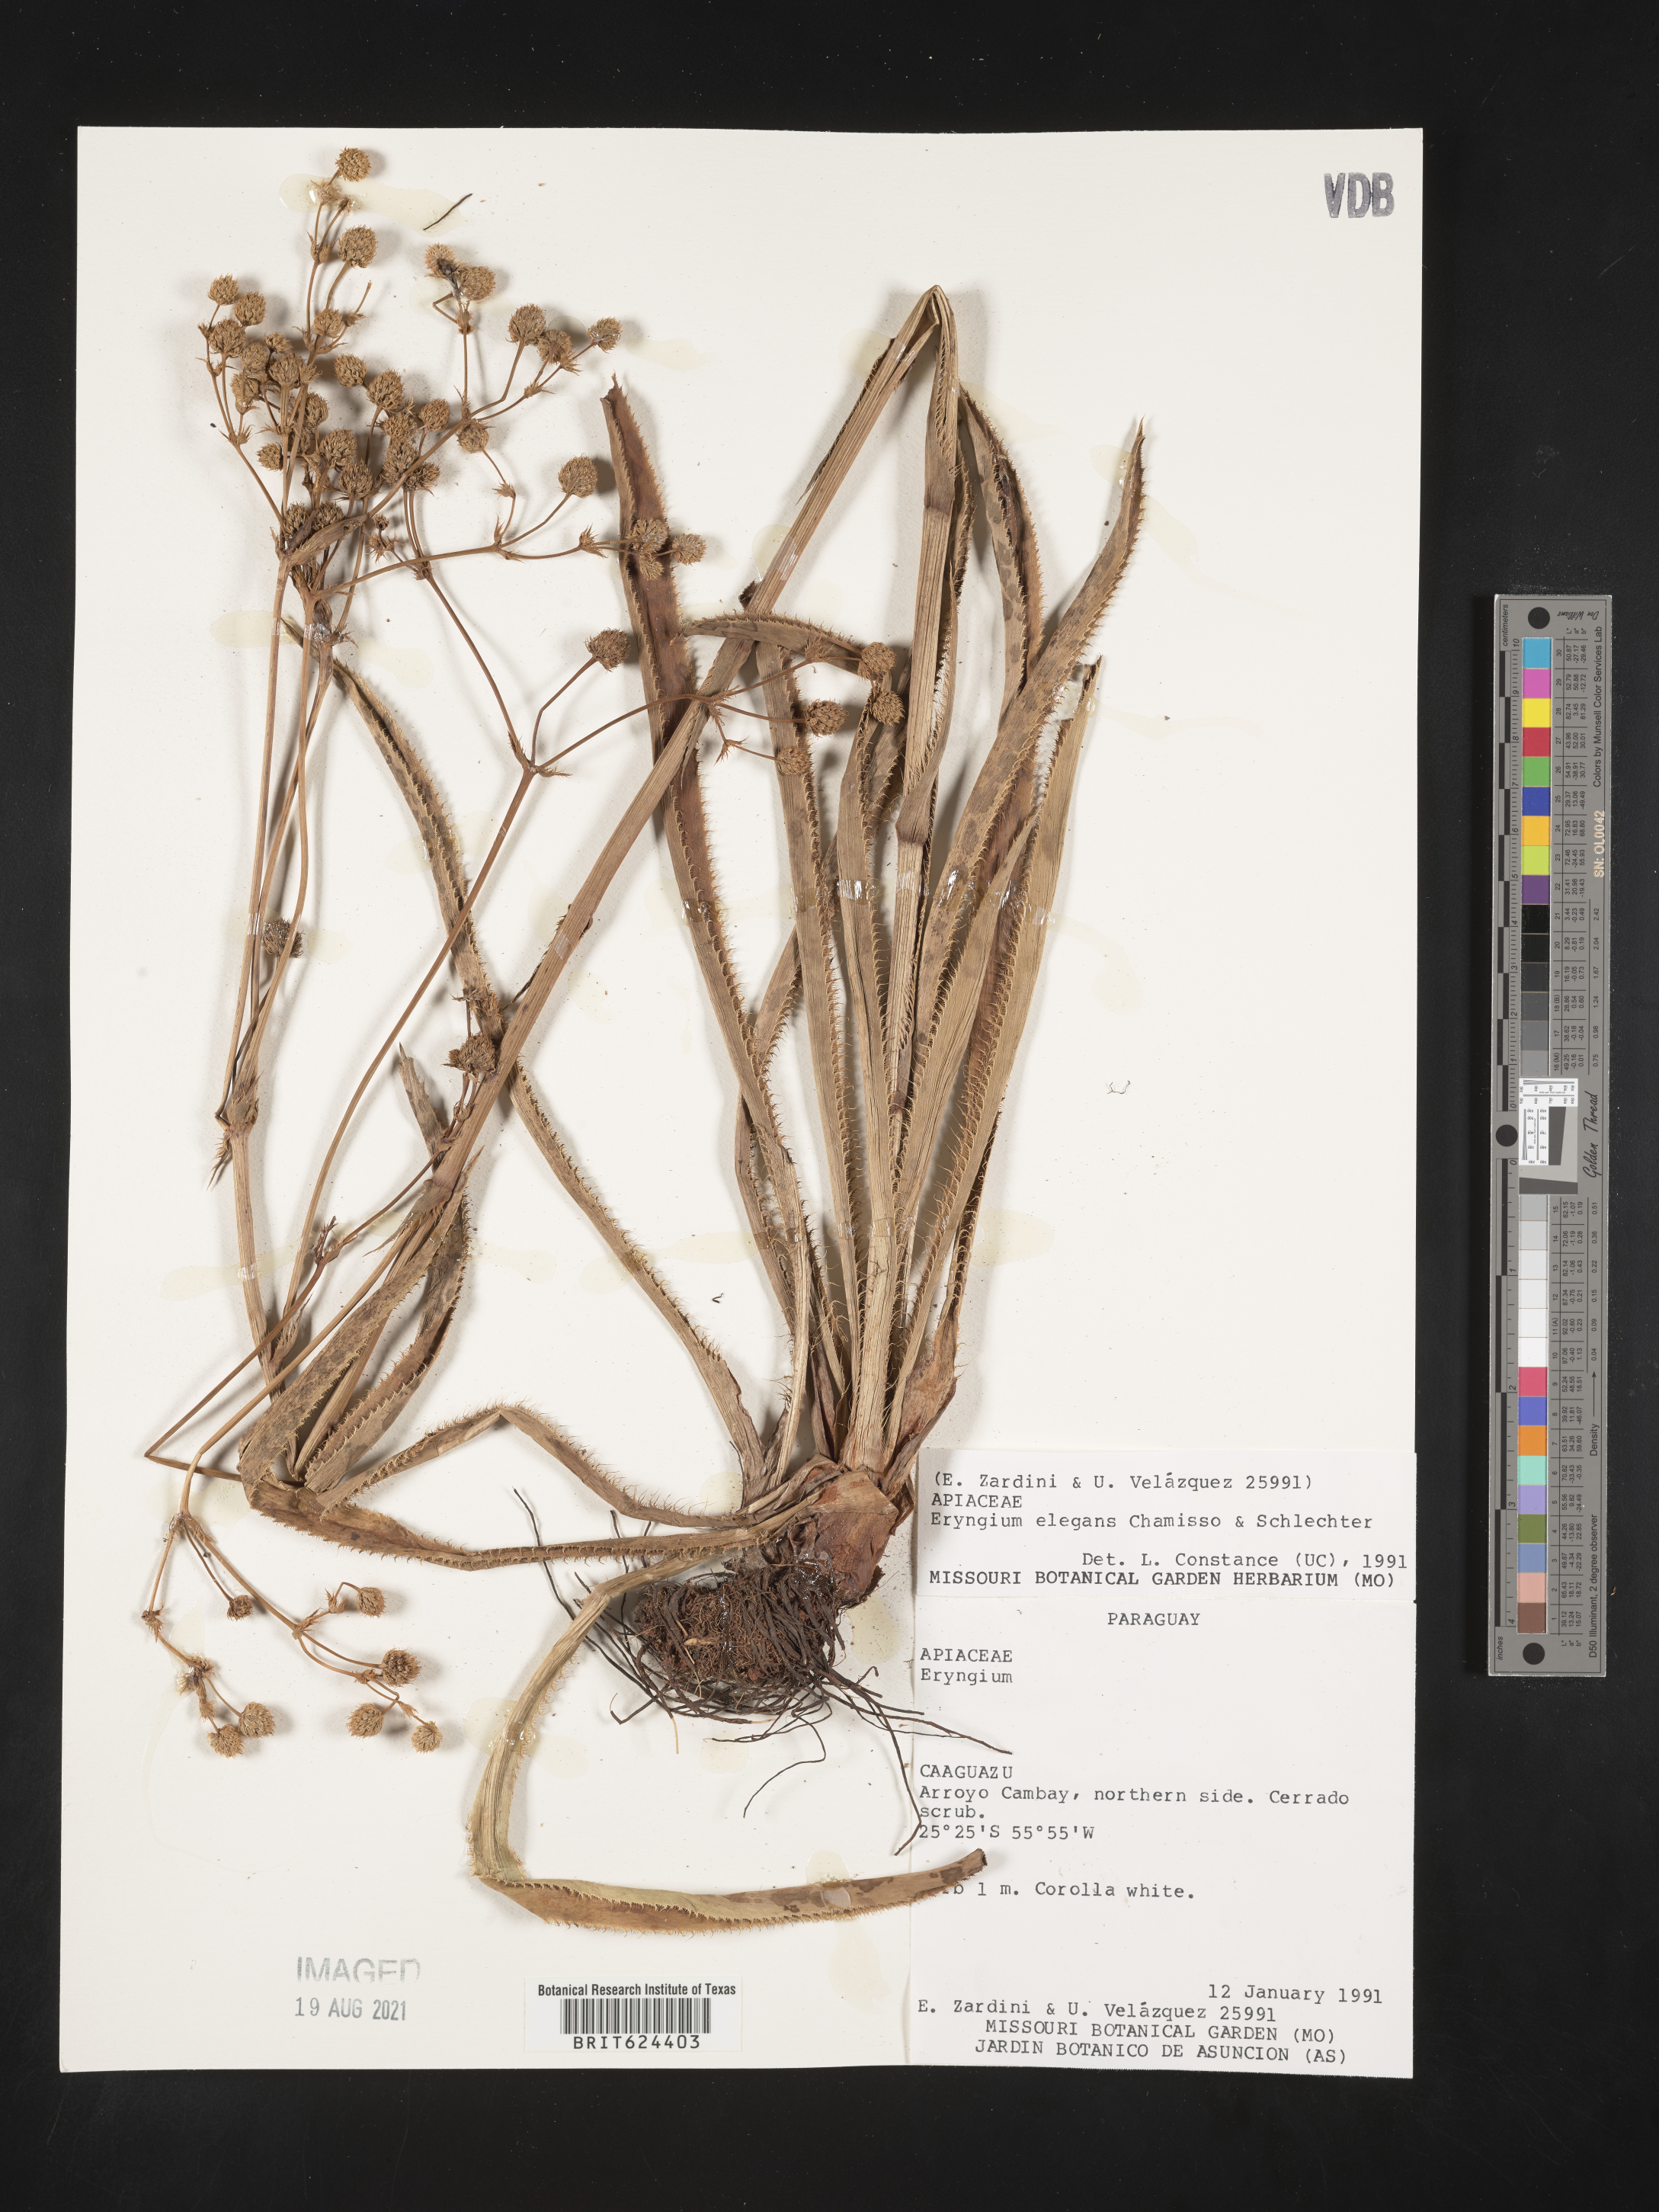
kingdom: Plantae
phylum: Tracheophyta
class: Magnoliopsida
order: Apiales
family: Apiaceae
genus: Eryngium
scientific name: Eryngium elegans
